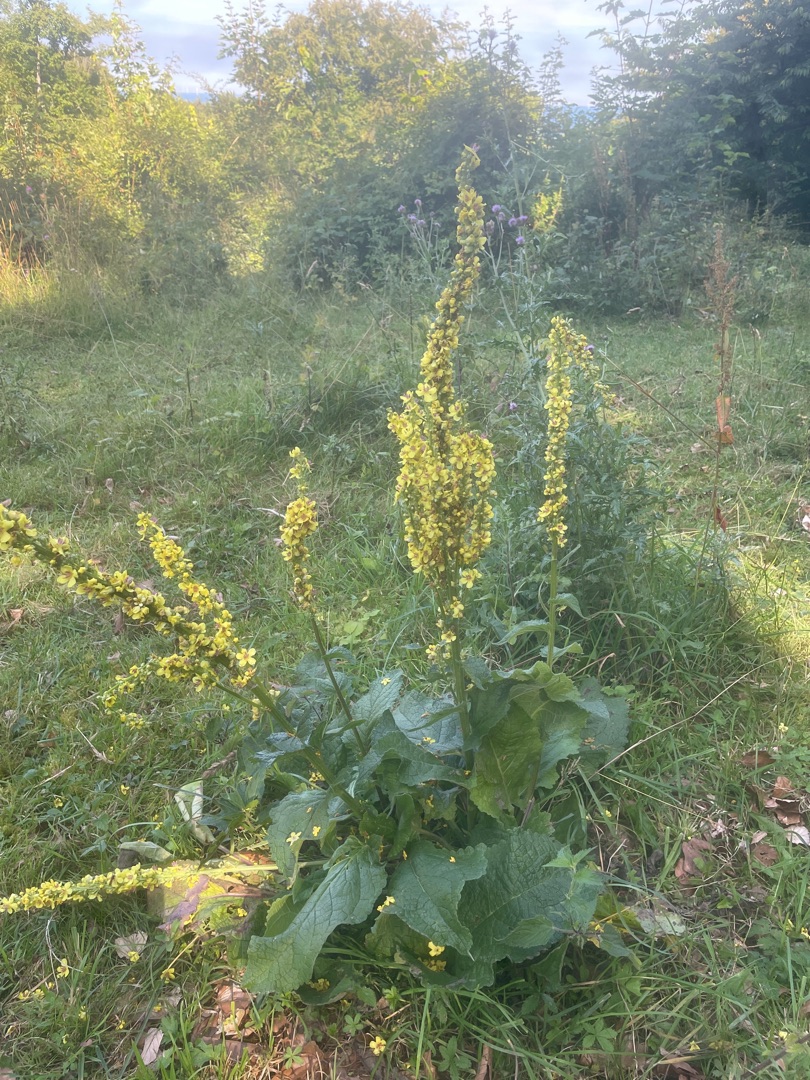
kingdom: Plantae
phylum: Tracheophyta
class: Magnoliopsida
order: Lamiales
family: Scrophulariaceae
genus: Verbascum
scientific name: Verbascum nigrum
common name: Mørk kongelys
